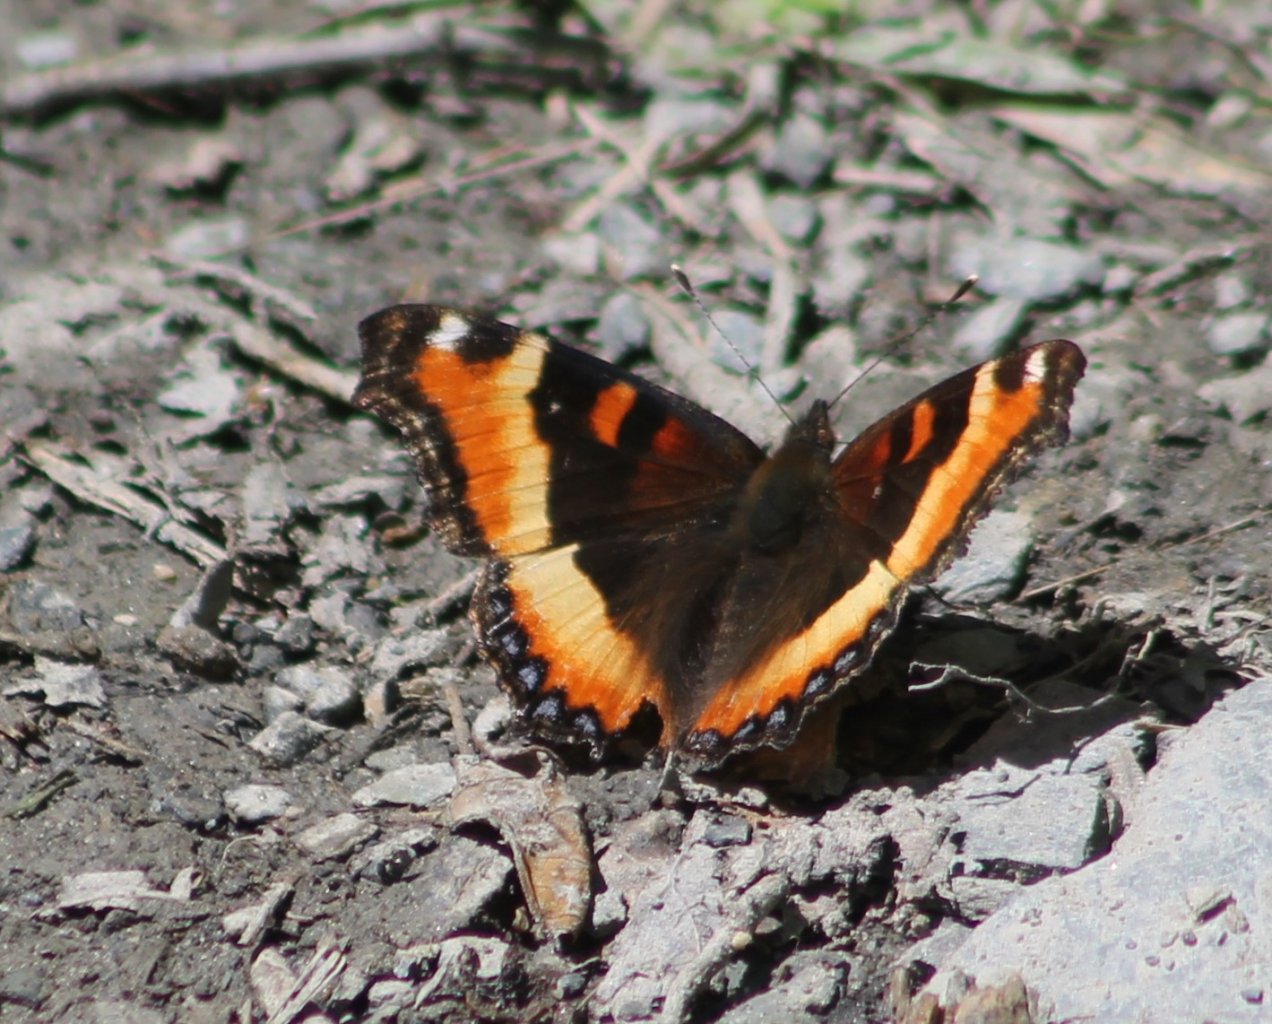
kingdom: Animalia
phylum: Arthropoda
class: Insecta
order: Lepidoptera
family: Nymphalidae
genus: Aglais
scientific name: Aglais milberti
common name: Milbert's Tortoiseshell
